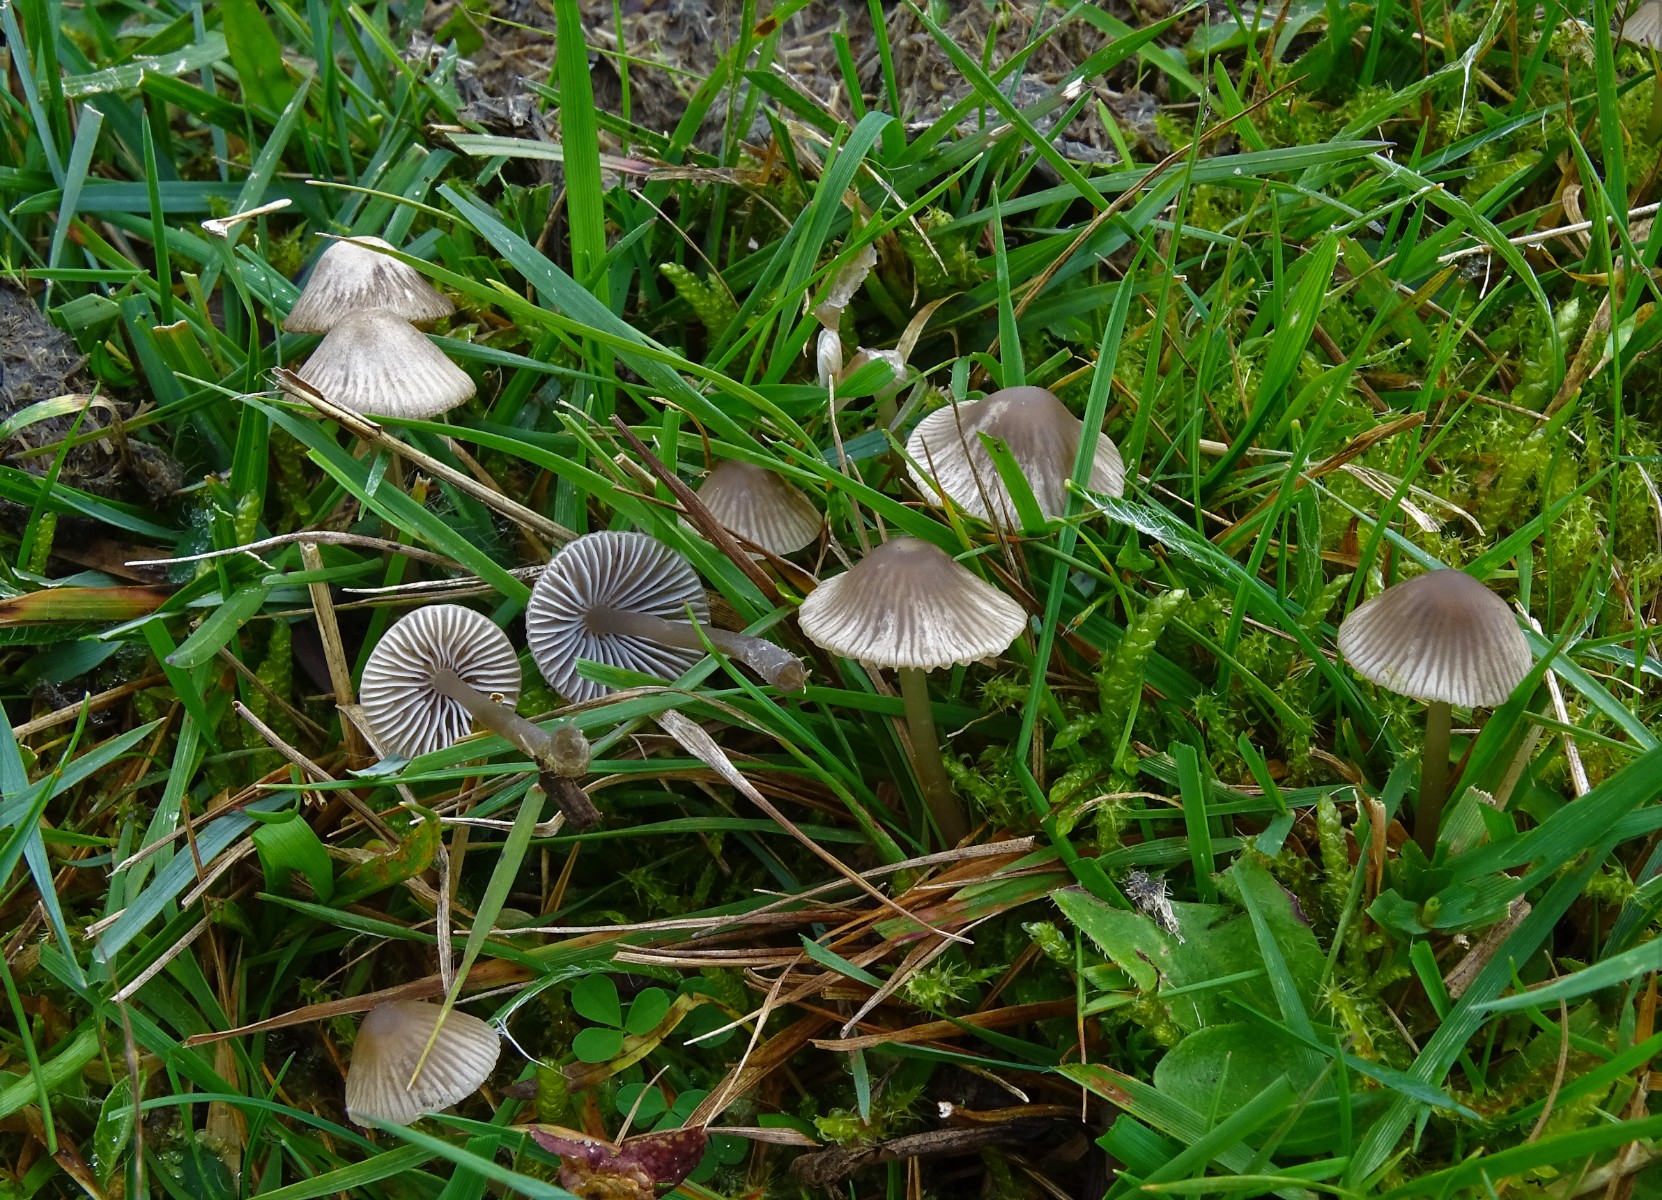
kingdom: Fungi
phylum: Basidiomycota
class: Agaricomycetes
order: Agaricales
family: Mycenaceae
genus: Mycena
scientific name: Mycena aetites
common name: plæne-huesvamp
